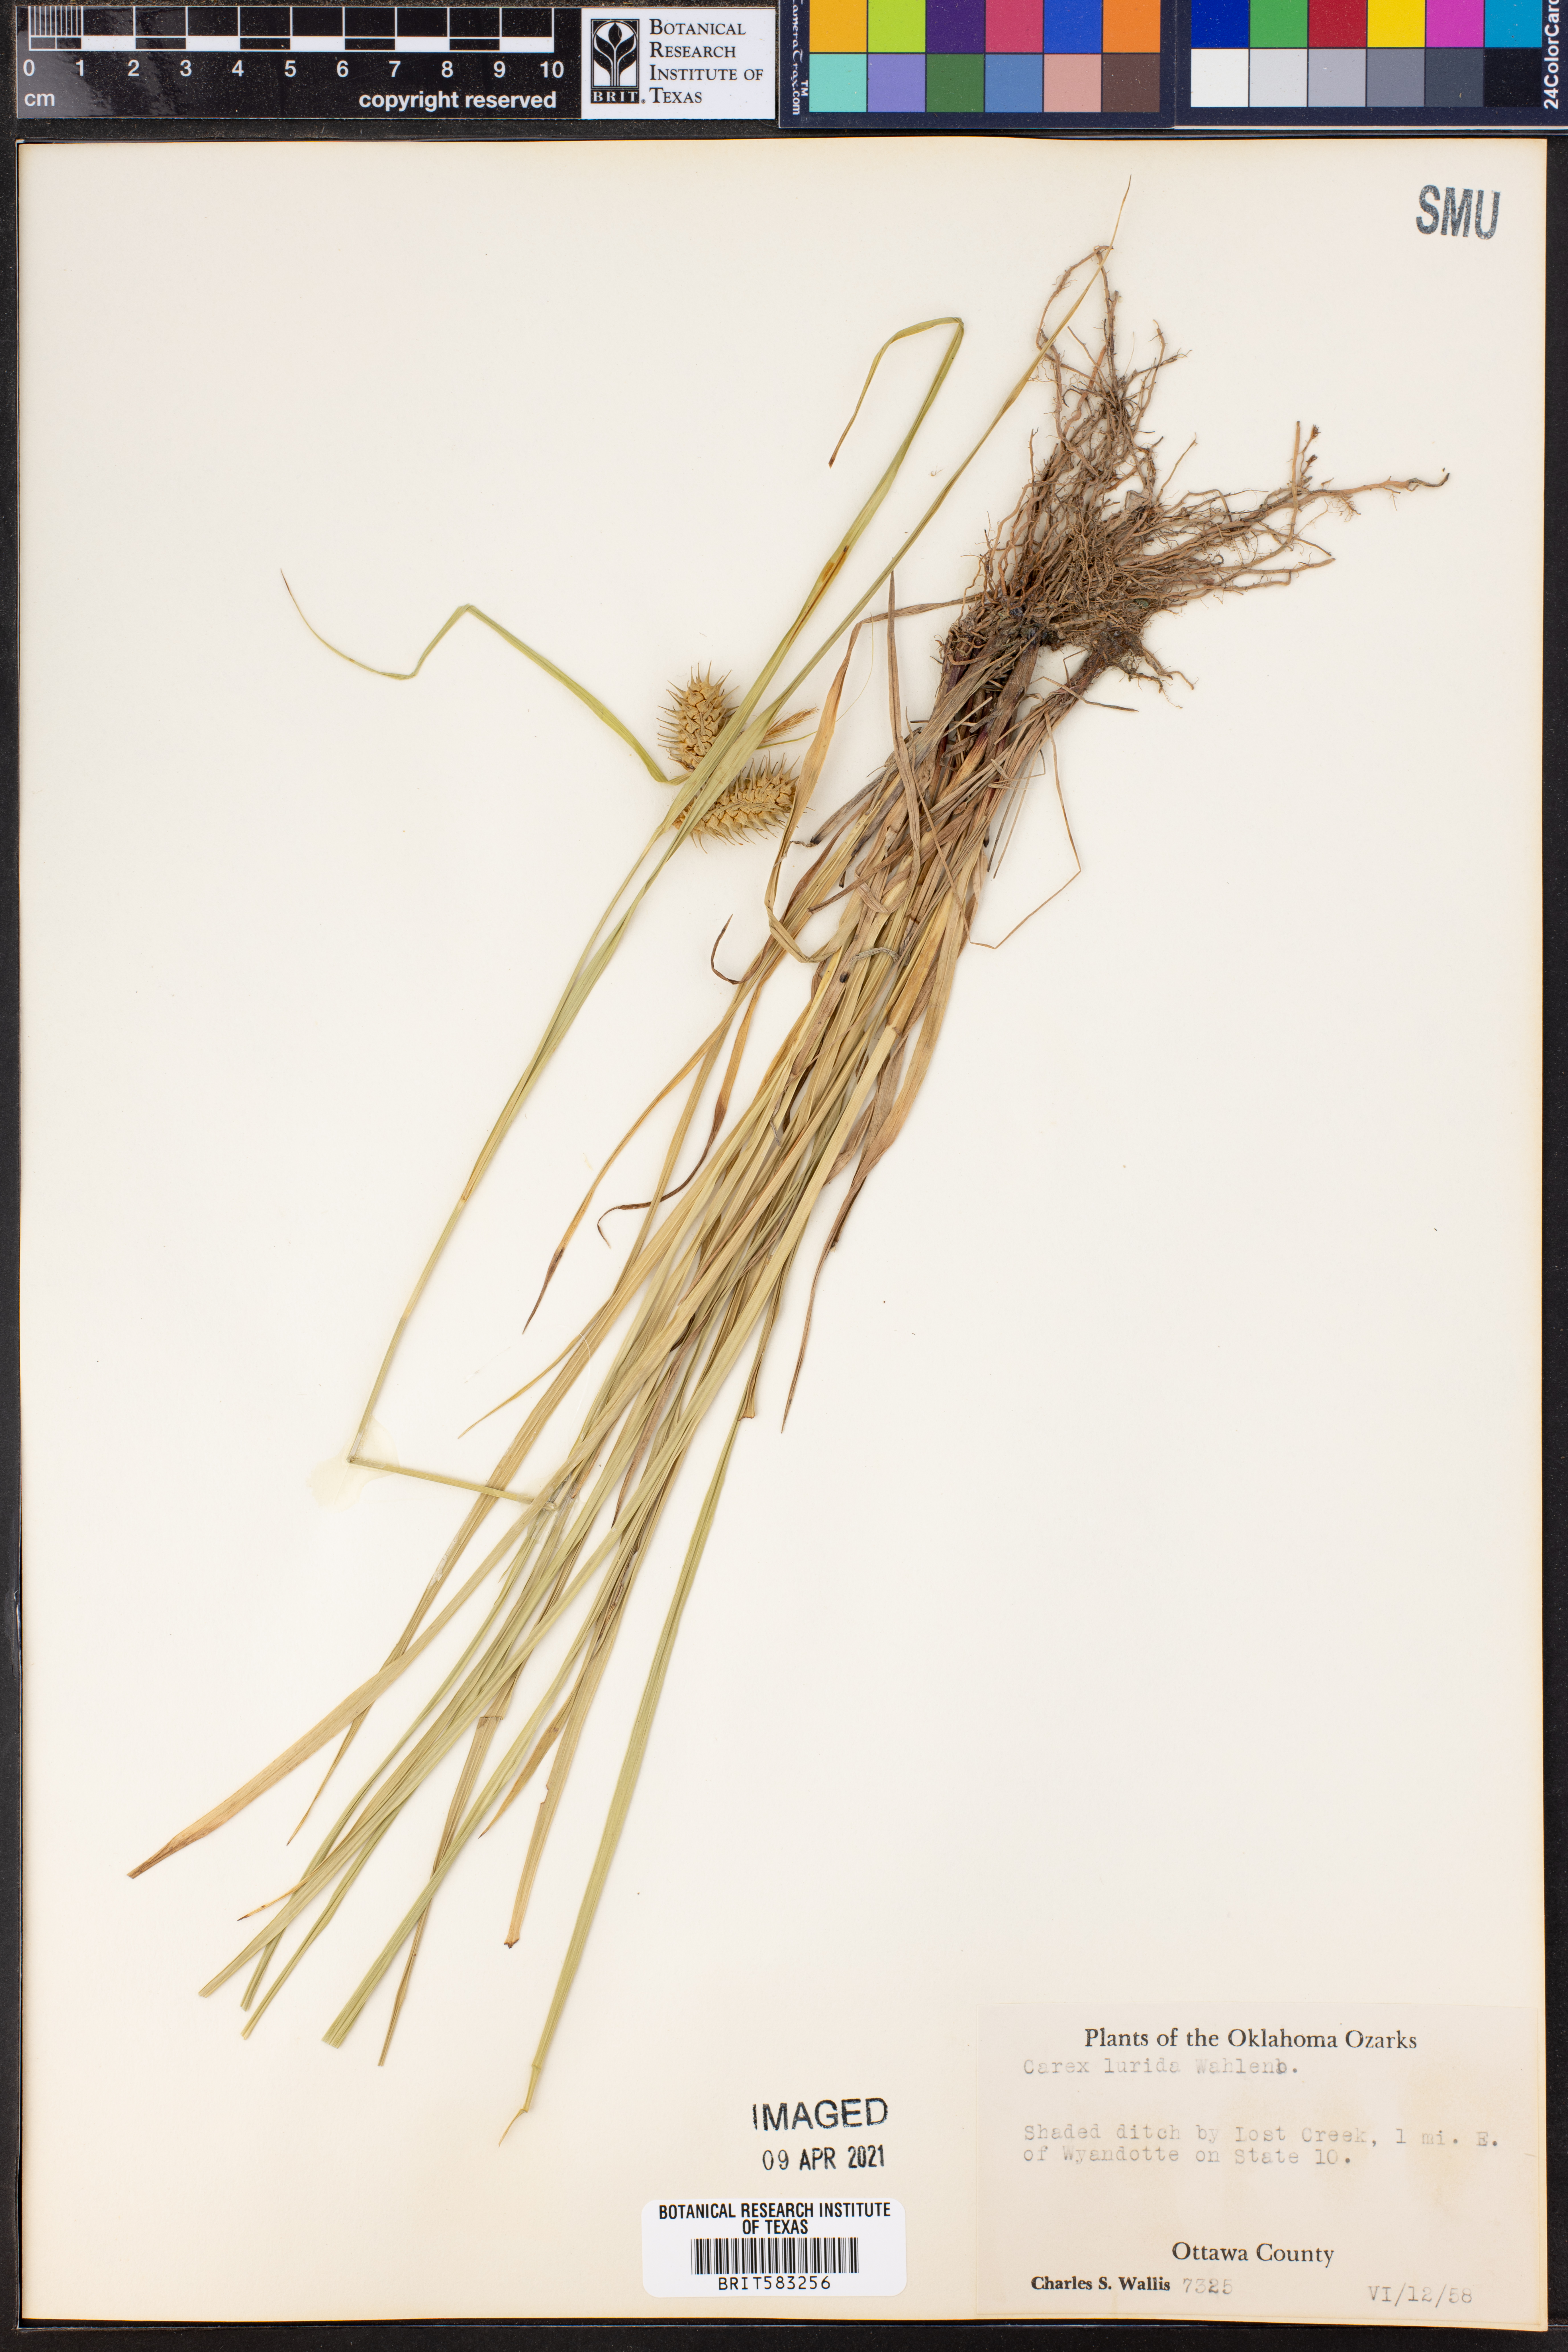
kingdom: Plantae
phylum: Tracheophyta
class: Liliopsida
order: Poales
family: Cyperaceae
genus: Carex
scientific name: Carex lurida
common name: Sallow sedge
